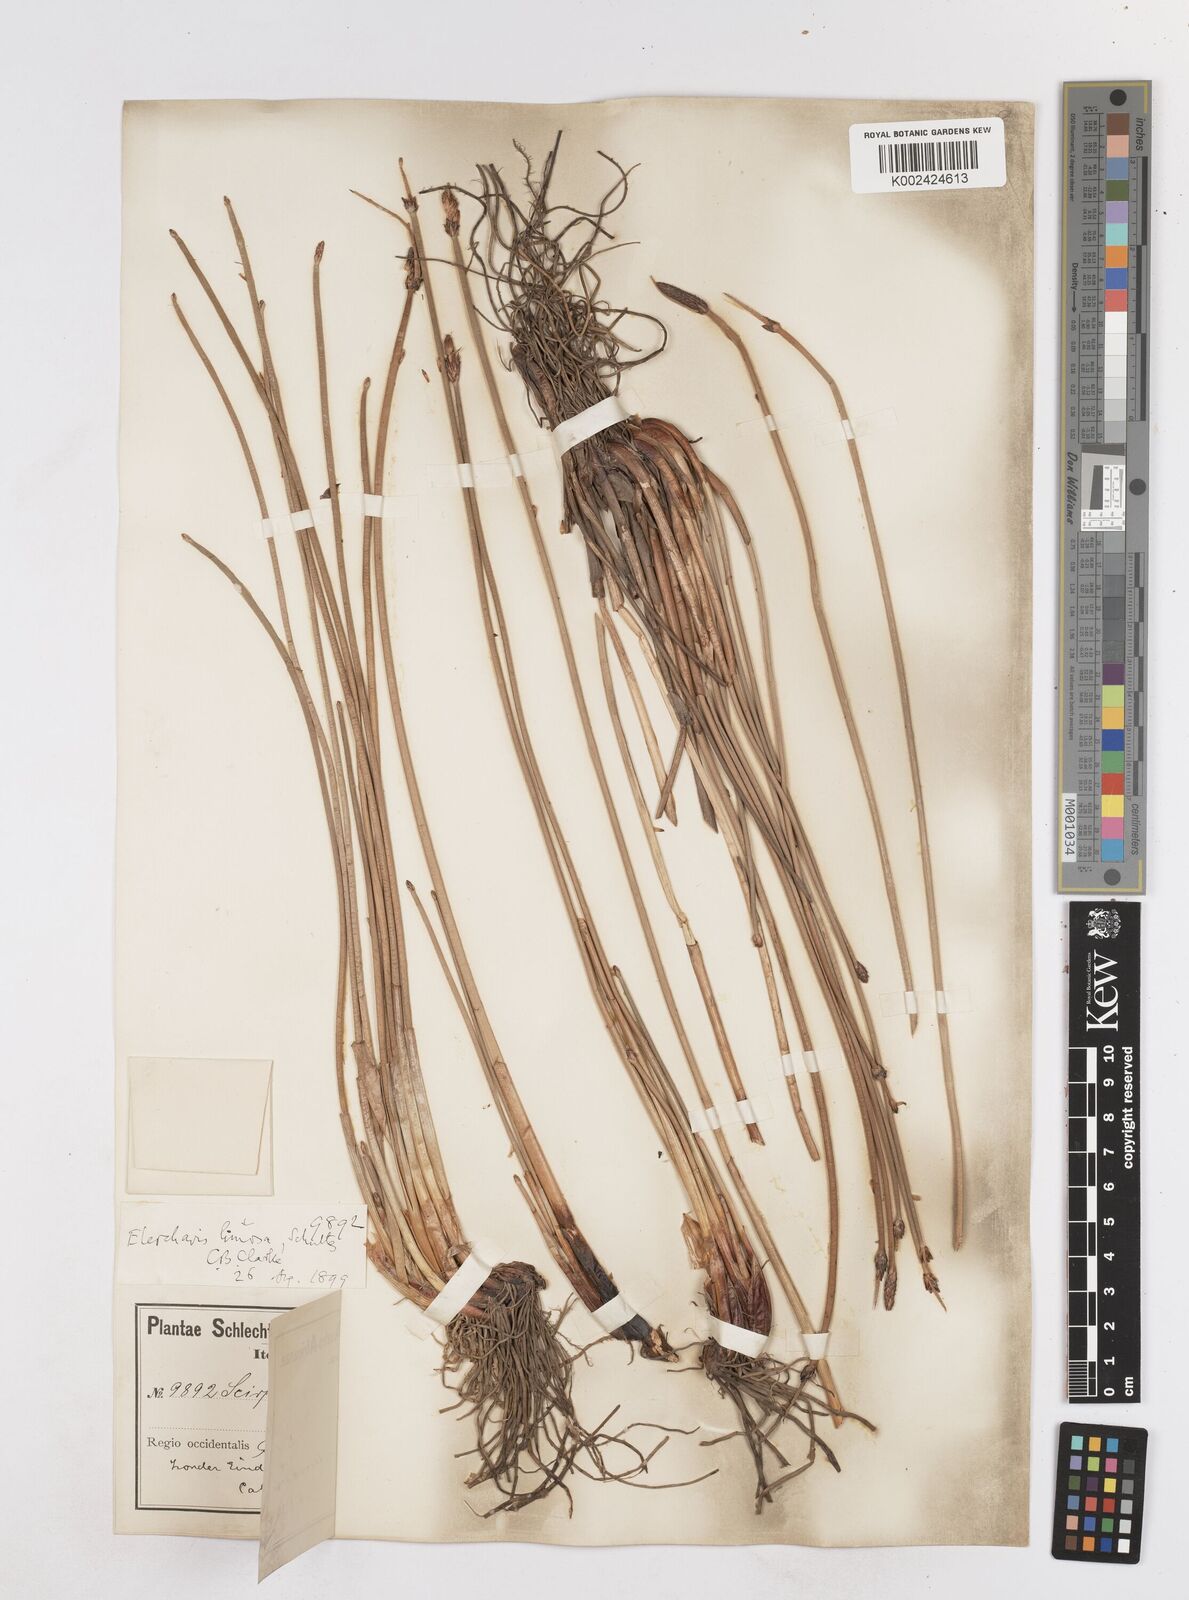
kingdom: Plantae
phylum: Tracheophyta
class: Liliopsida
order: Poales
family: Cyperaceae
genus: Eleocharis
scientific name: Eleocharis limosa
